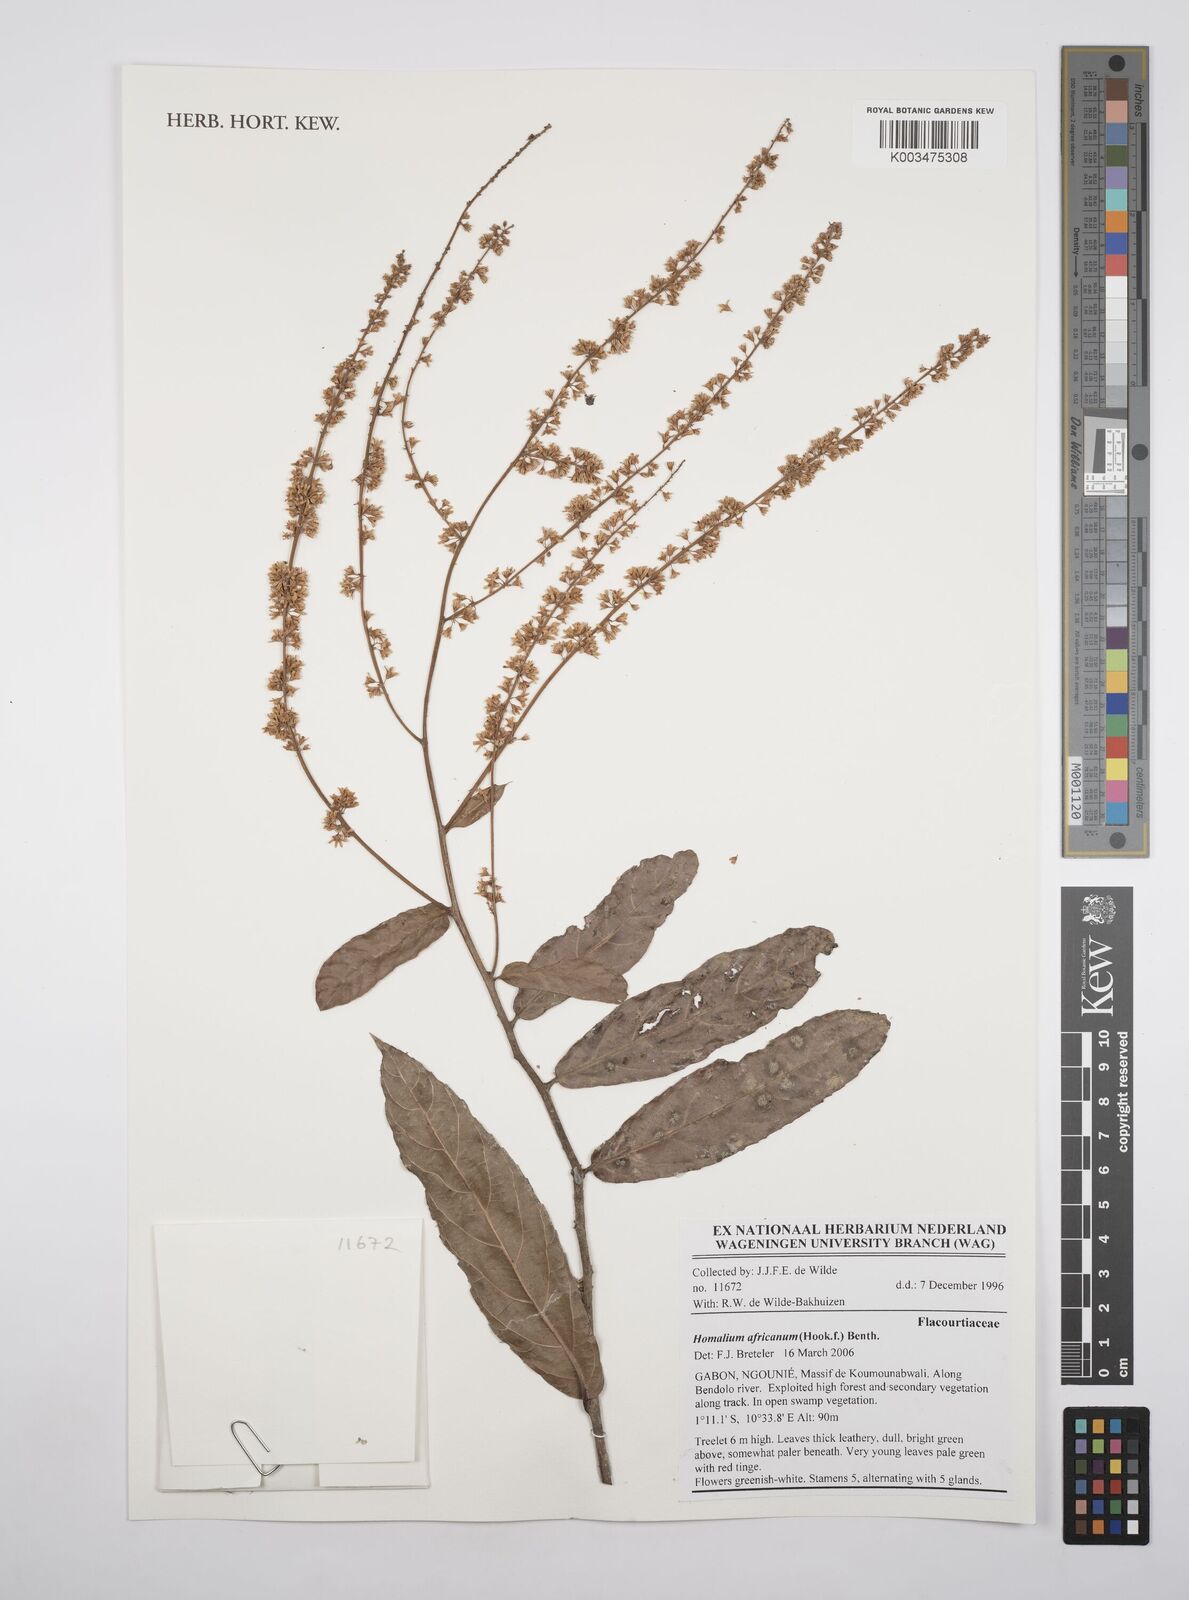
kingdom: Plantae
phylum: Tracheophyta
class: Magnoliopsida
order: Malpighiales
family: Salicaceae
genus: Homalium
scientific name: Homalium africanum
